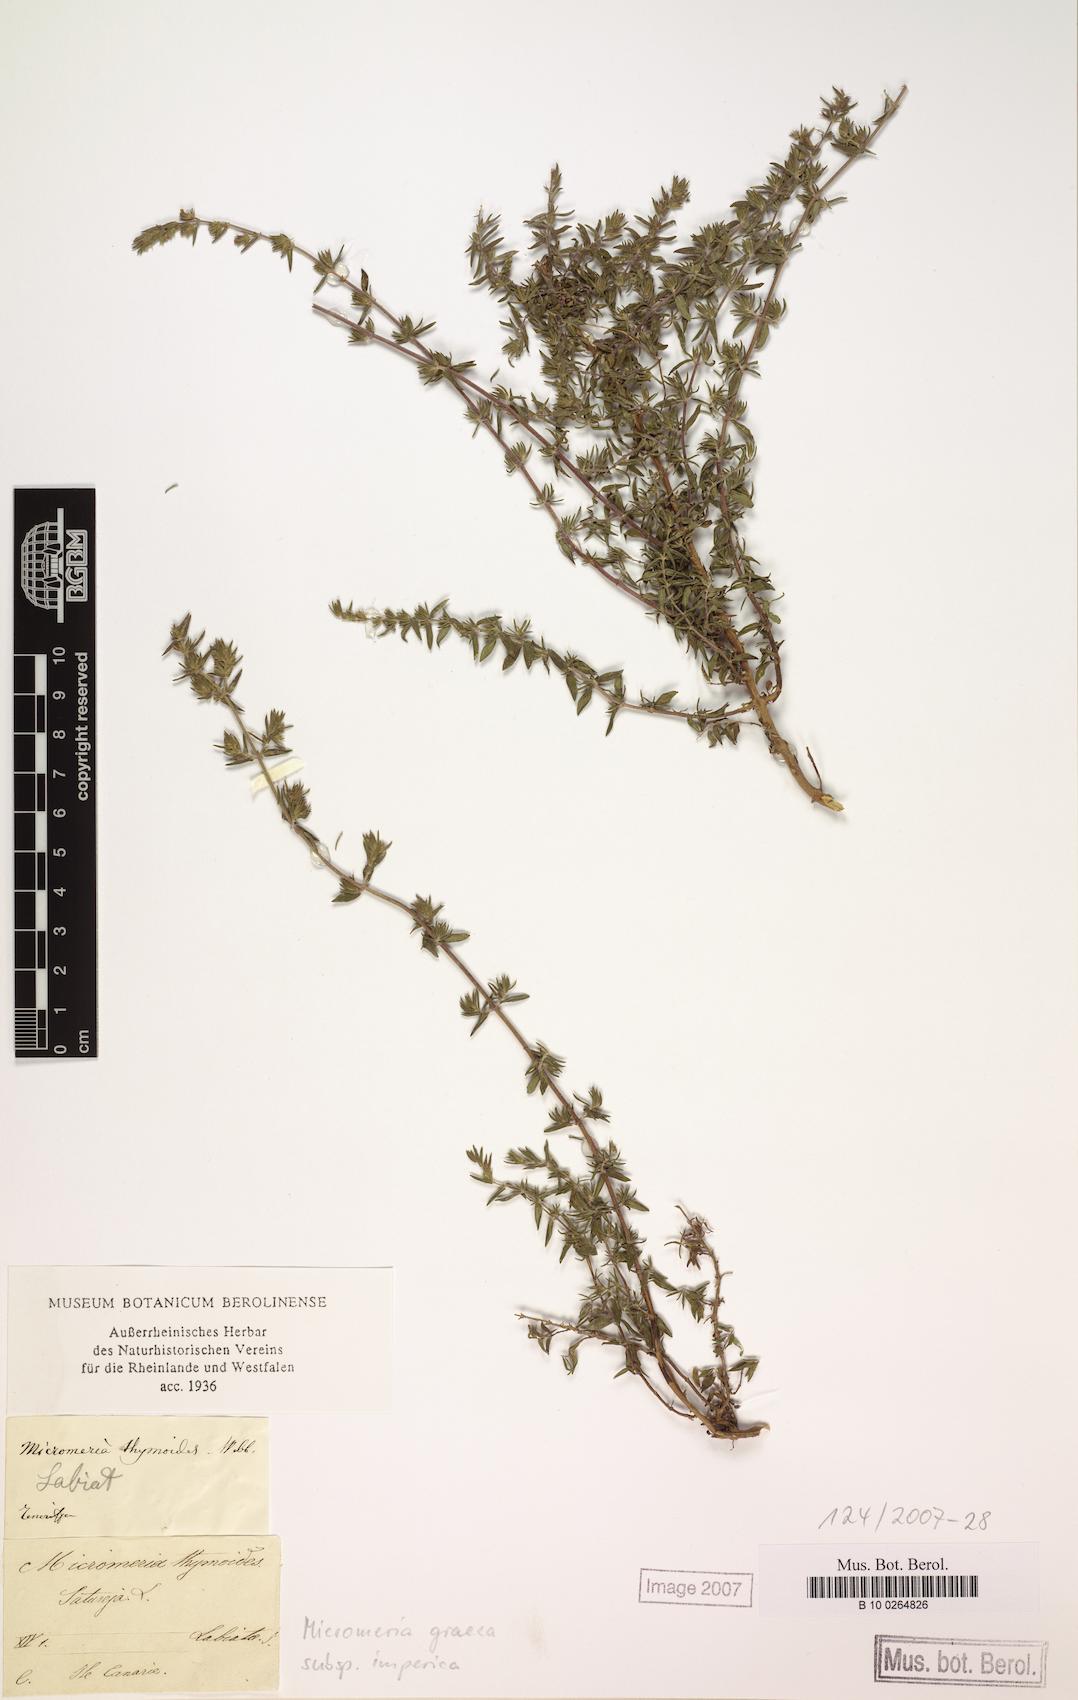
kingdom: Plantae
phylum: Tracheophyta
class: Magnoliopsida
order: Lamiales
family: Lamiaceae
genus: Micromeria
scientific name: Micromeria graeca
